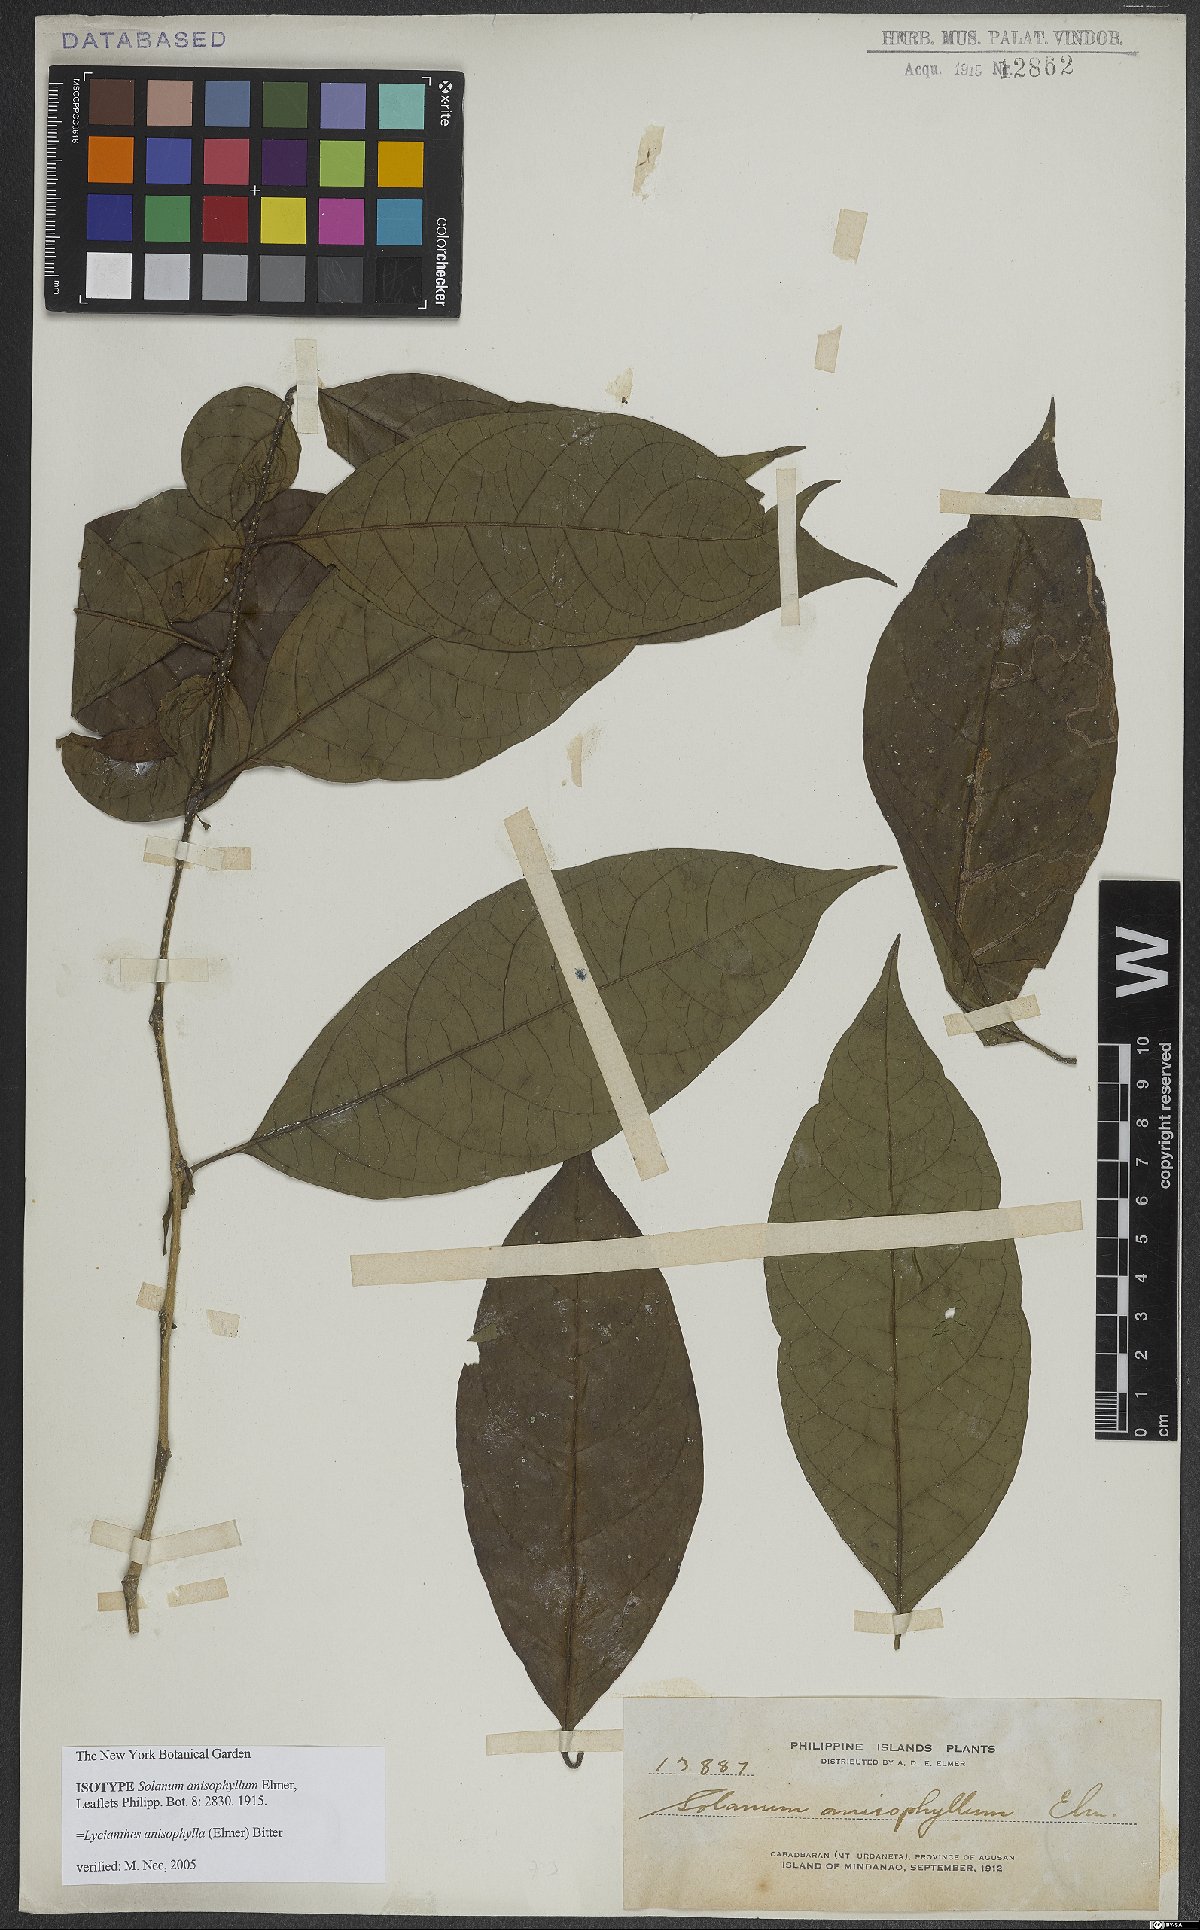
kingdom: Plantae
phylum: Tracheophyta
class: Magnoliopsida
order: Solanales
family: Solanaceae
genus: Lycianthes
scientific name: Lycianthes lagunensis
